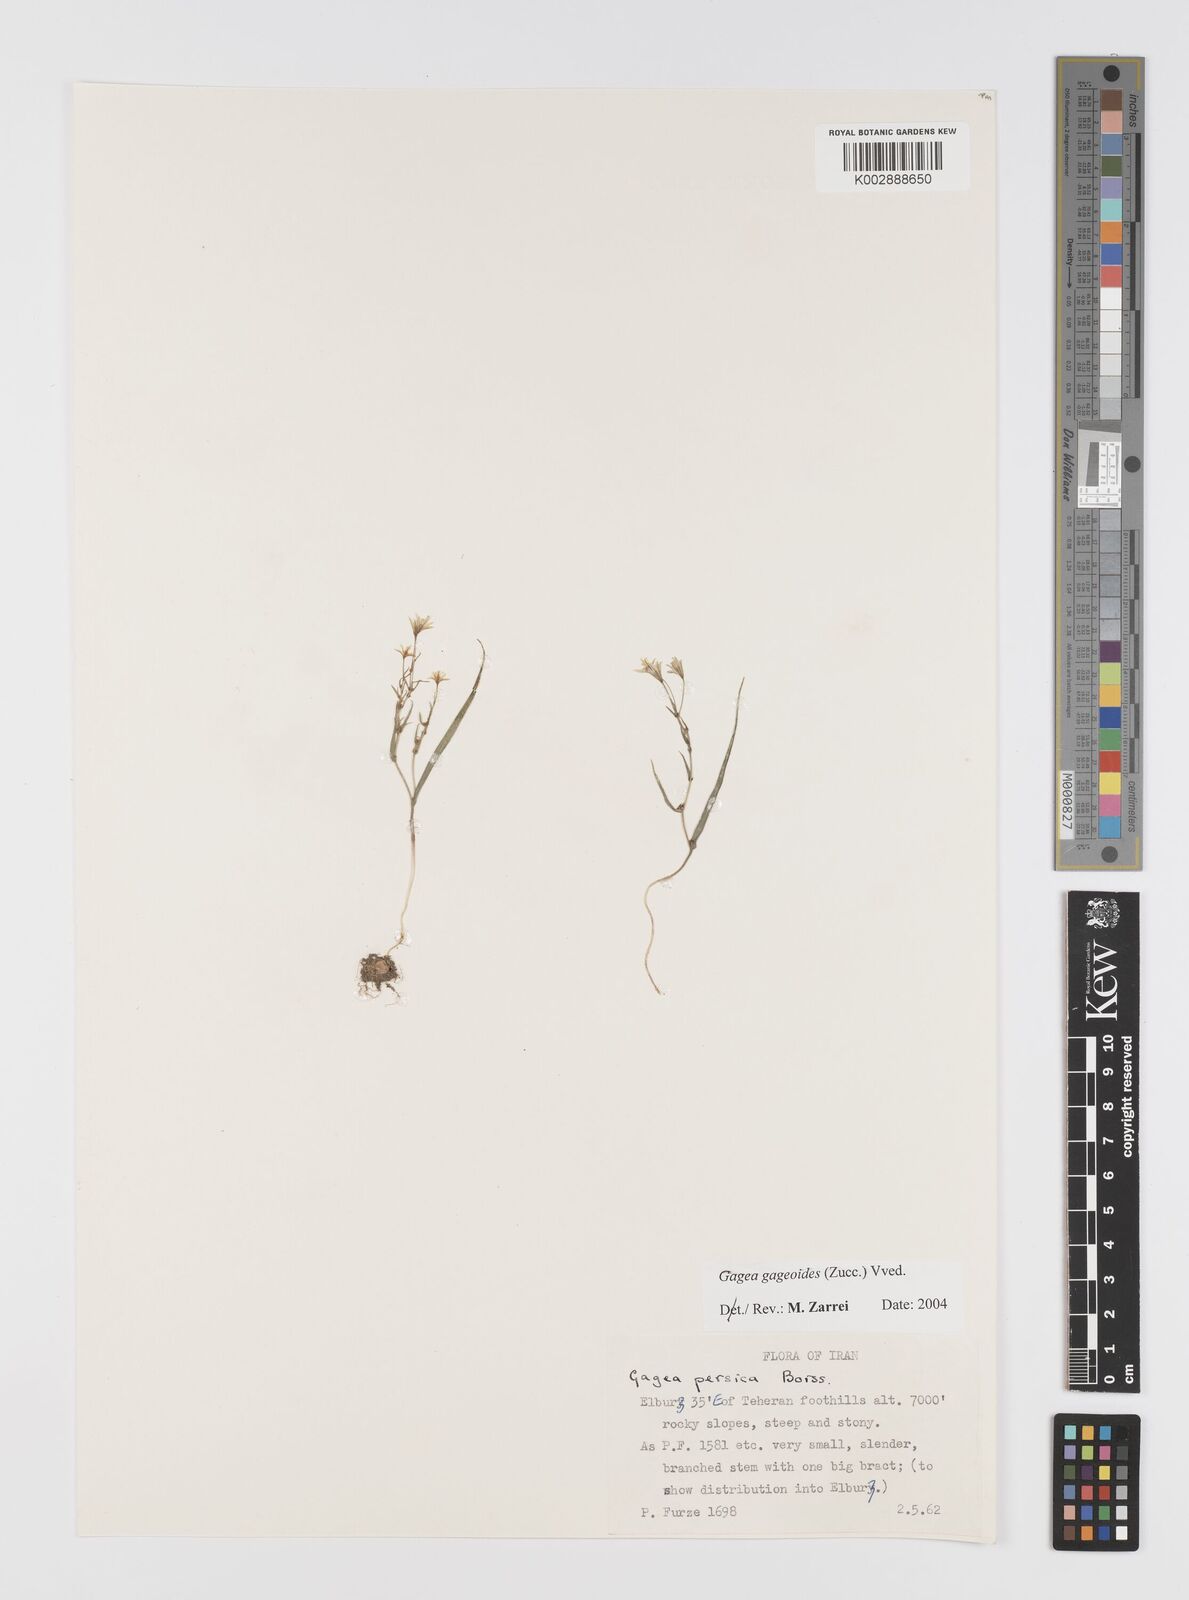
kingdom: Plantae
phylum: Tracheophyta
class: Liliopsida
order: Liliales
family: Liliaceae
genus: Gagea
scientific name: Gagea gageoides
